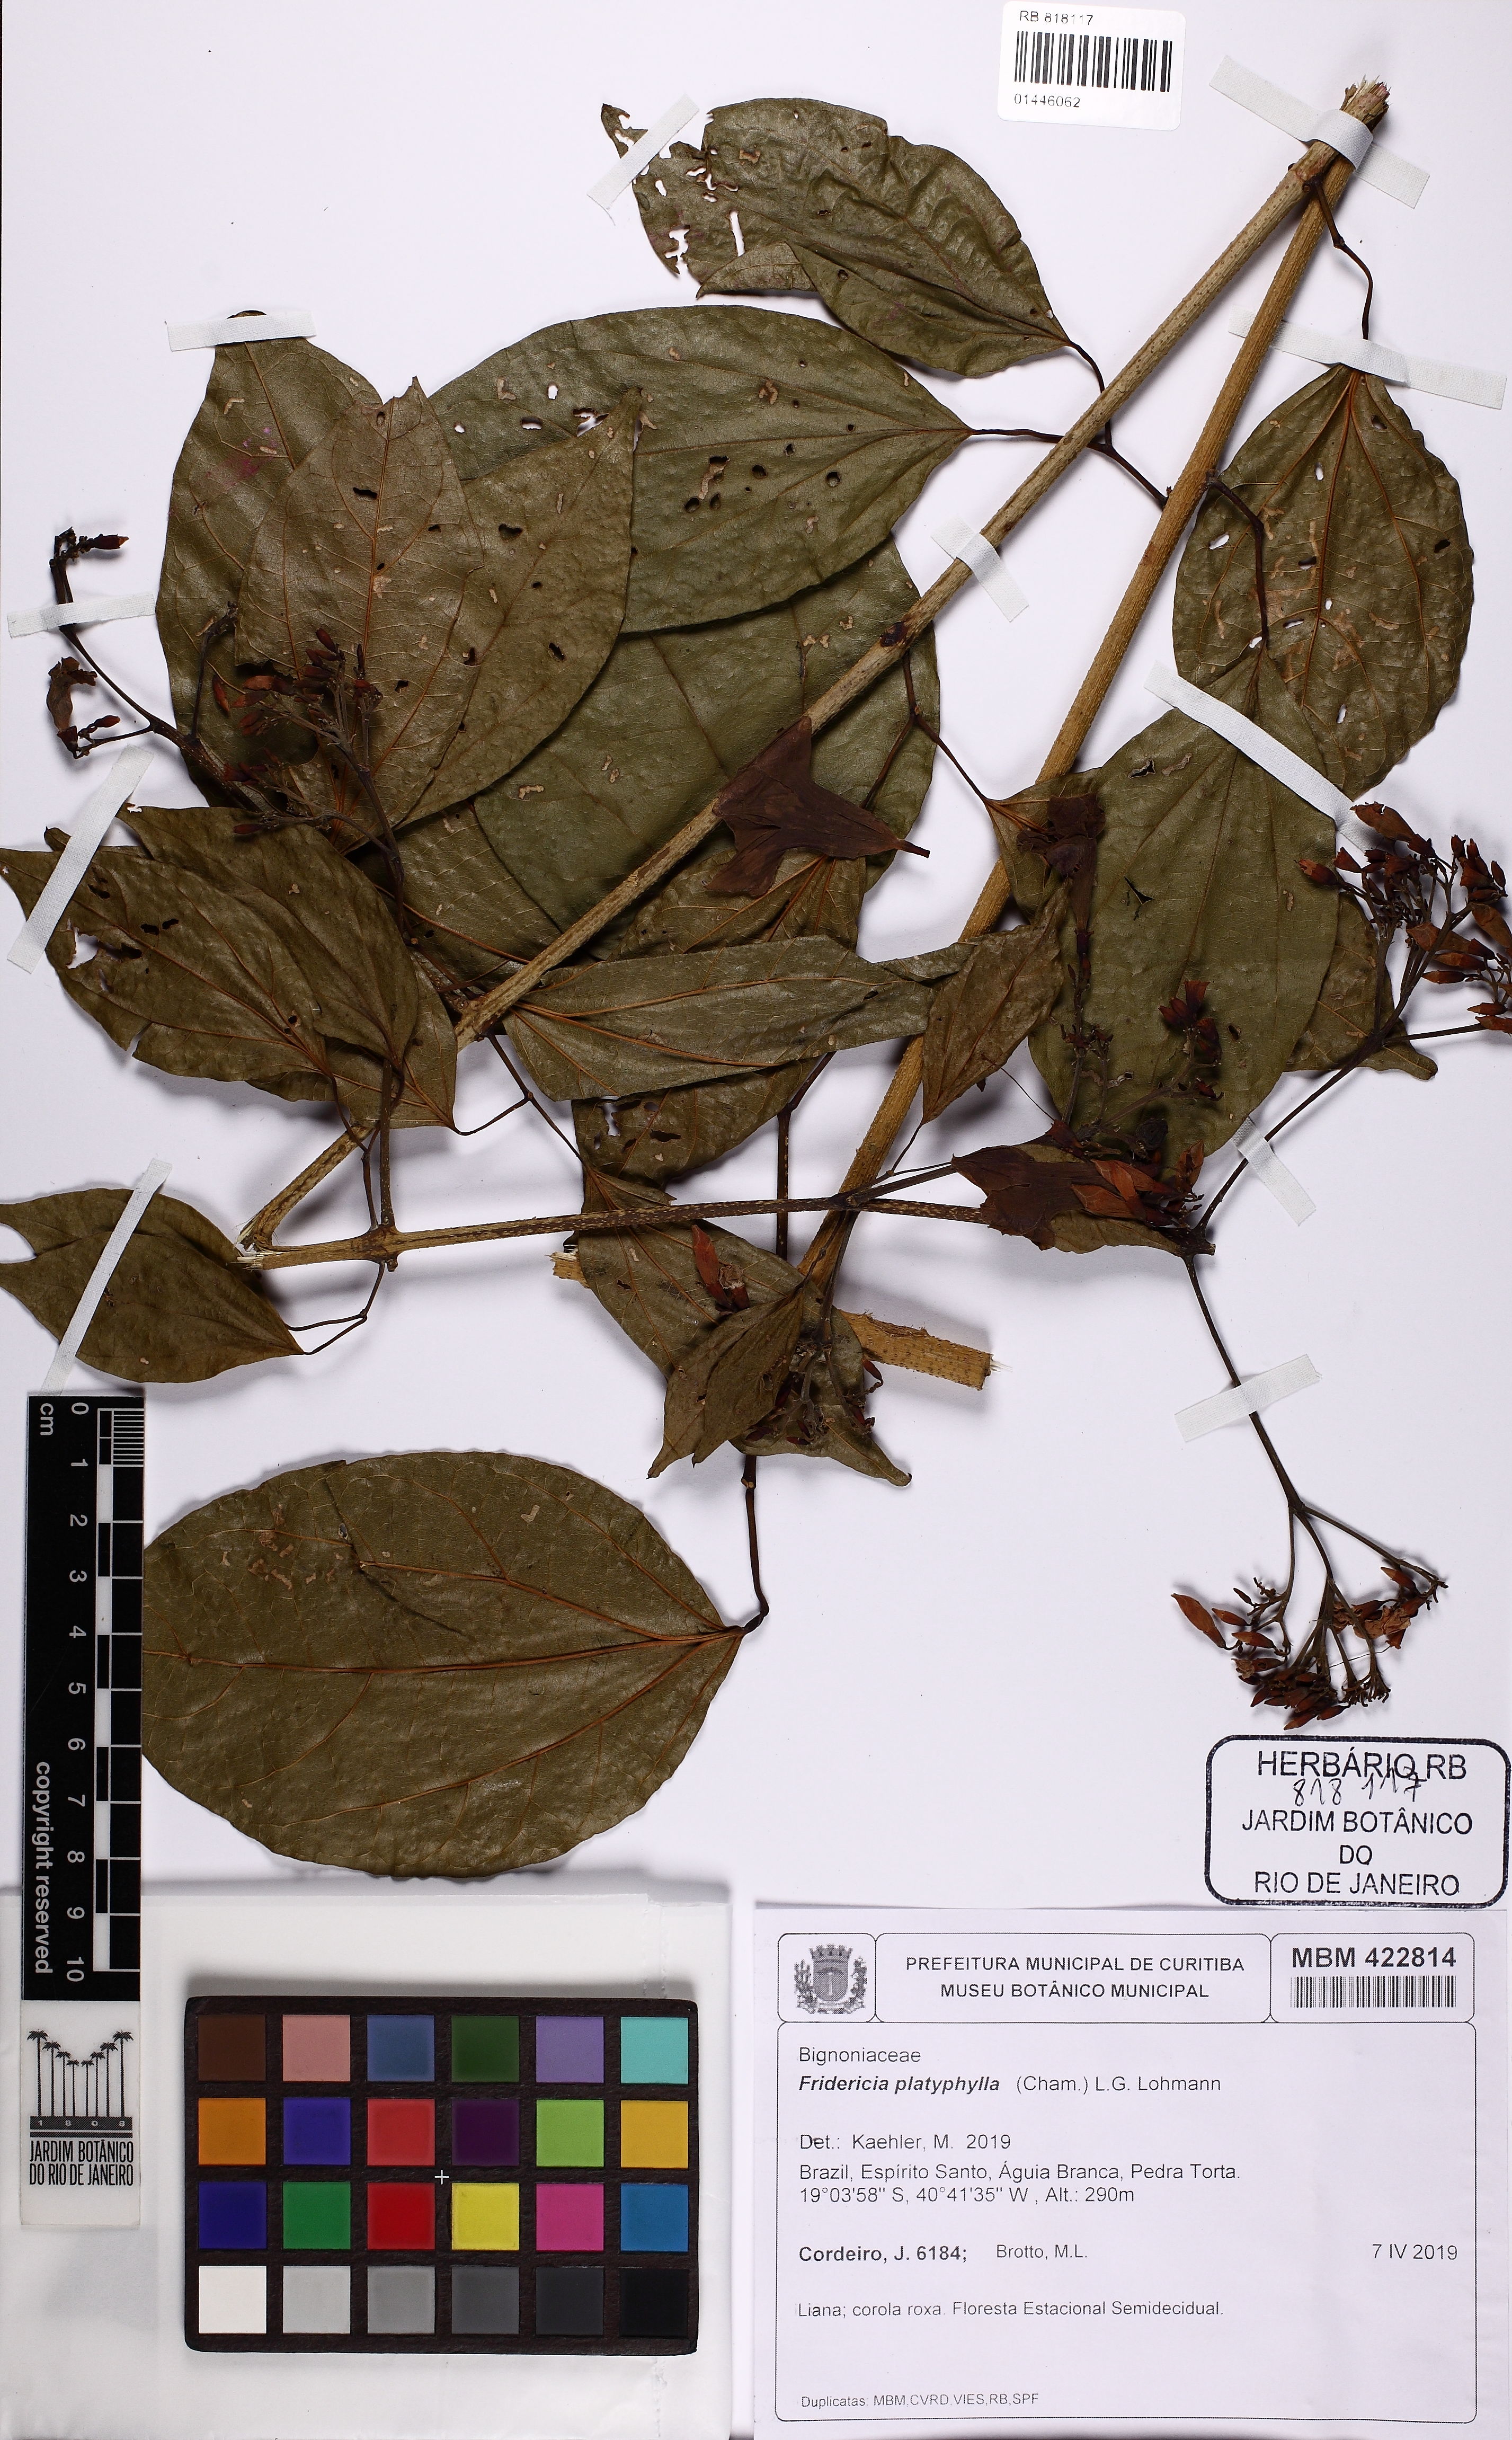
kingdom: Plantae
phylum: Tracheophyta
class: Magnoliopsida
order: Lamiales
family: Bignoniaceae
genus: Fridericia
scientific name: Fridericia platyphylla
